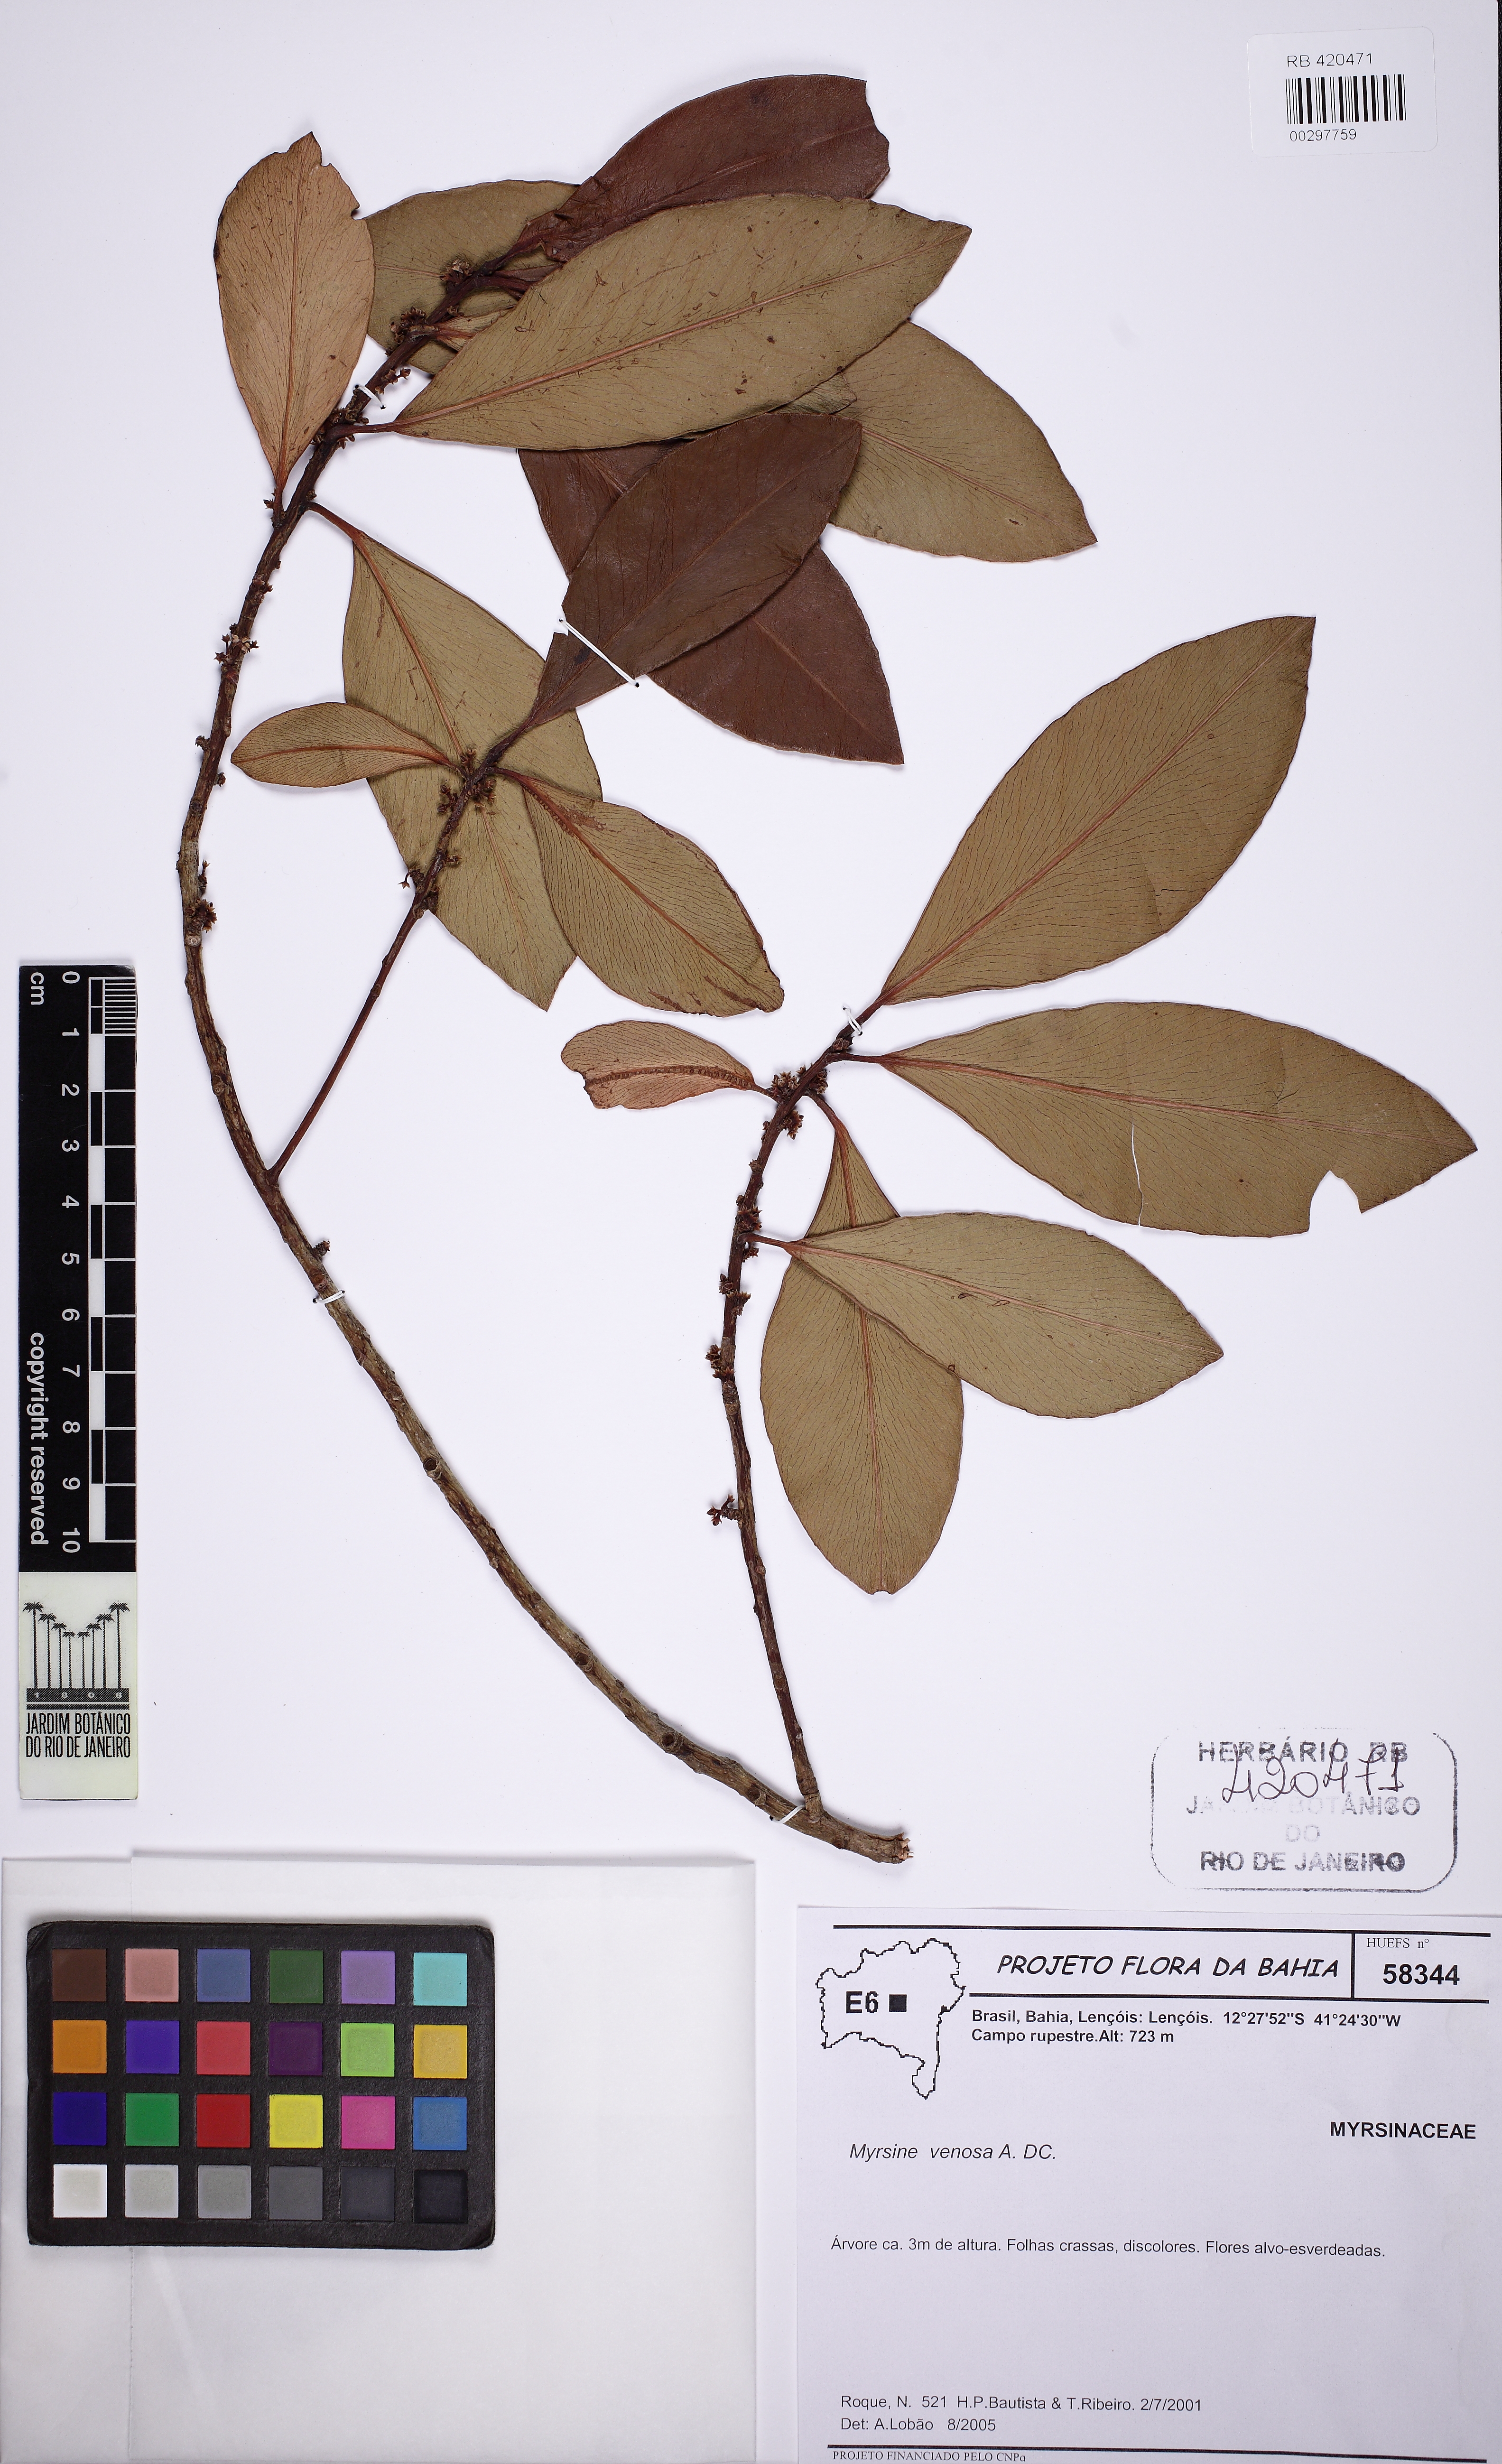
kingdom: Plantae
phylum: Tracheophyta
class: Magnoliopsida
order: Ericales
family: Primulaceae
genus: Myrsine
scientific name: Myrsine venosa
